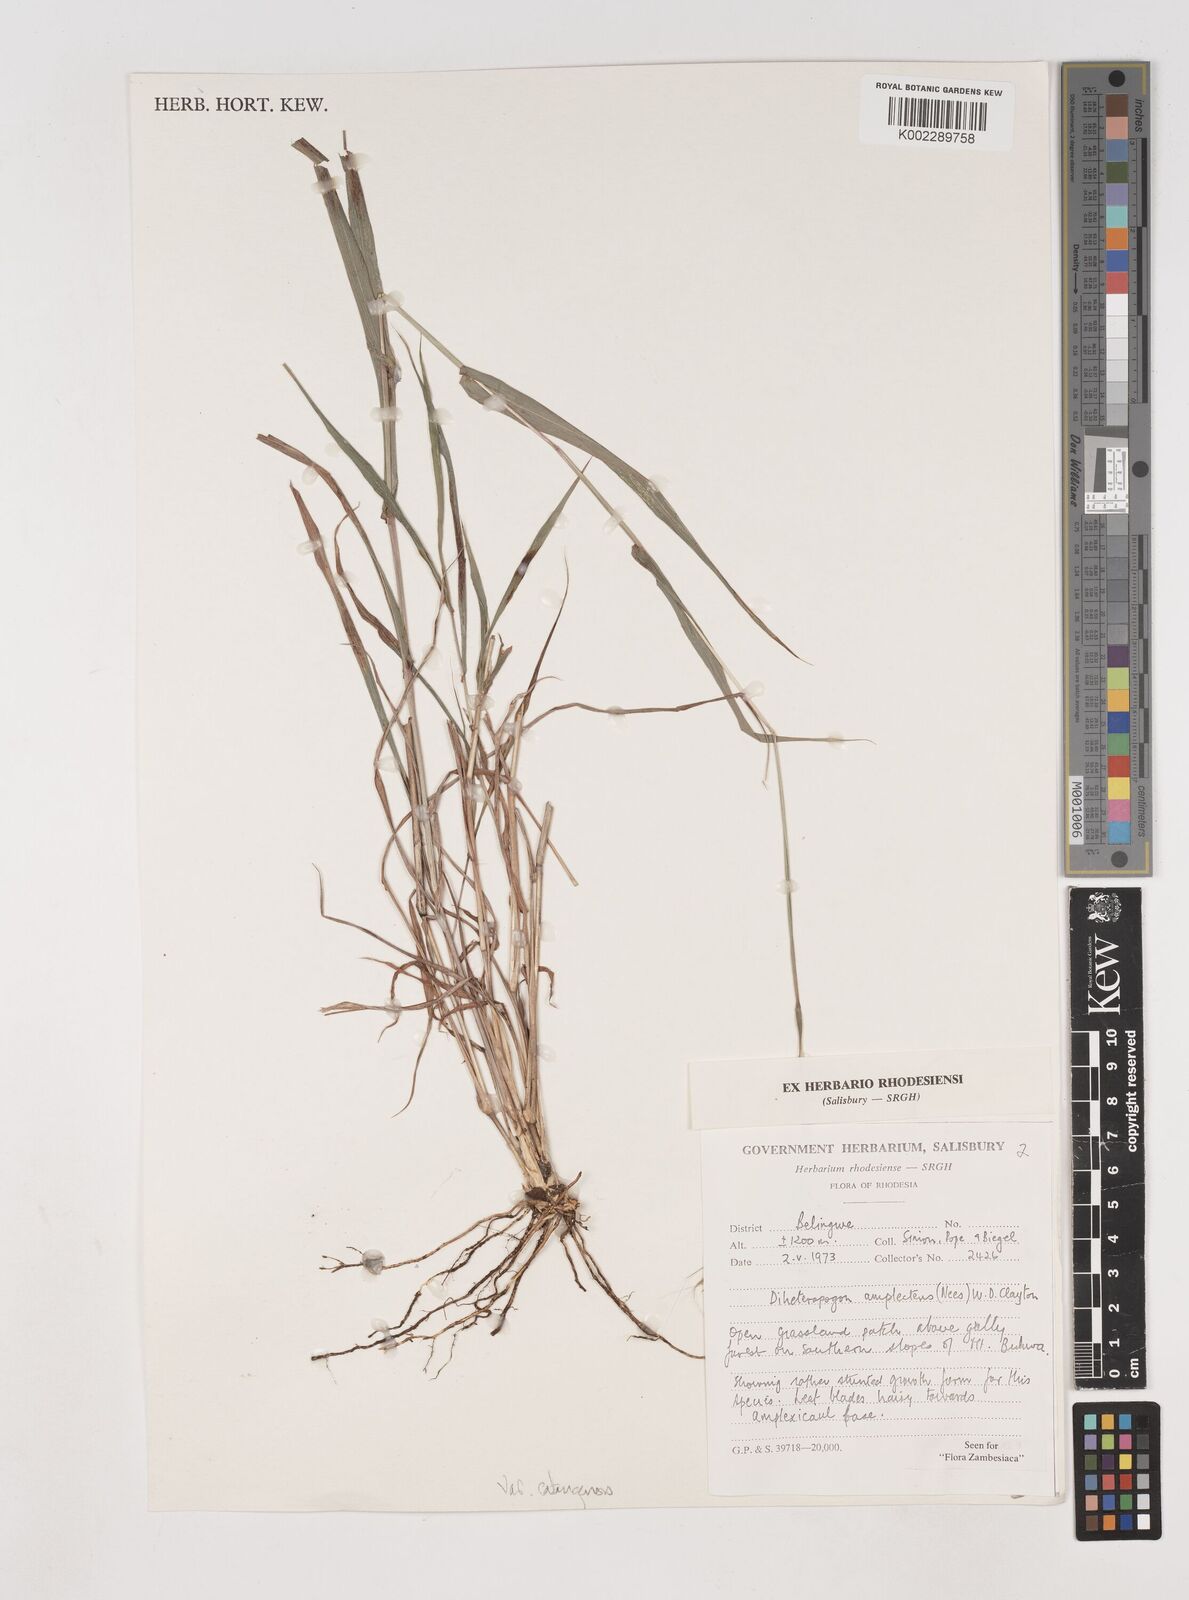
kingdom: Plantae
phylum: Tracheophyta
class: Liliopsida
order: Poales
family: Poaceae
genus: Diheteropogon
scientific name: Diheteropogon amplectens
